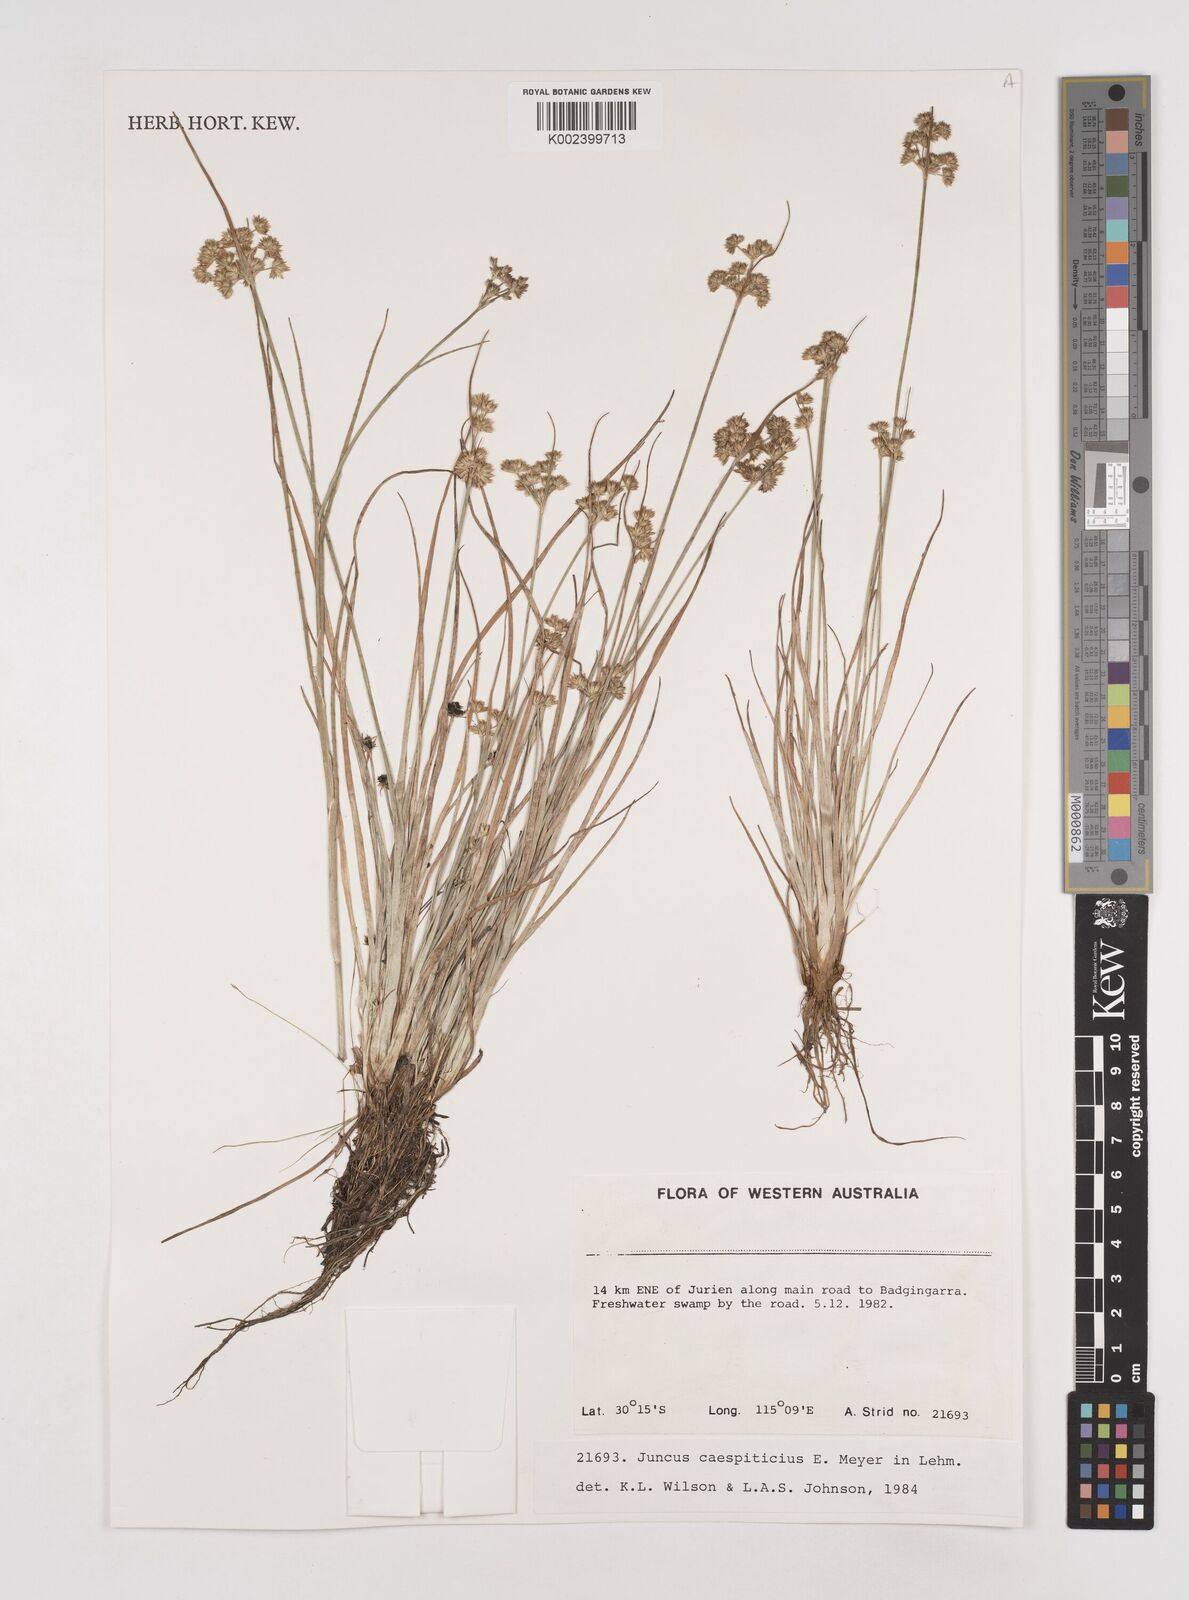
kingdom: Plantae
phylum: Tracheophyta
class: Liliopsida
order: Poales
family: Juncaceae
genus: Juncus
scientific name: Juncus caespiticius
